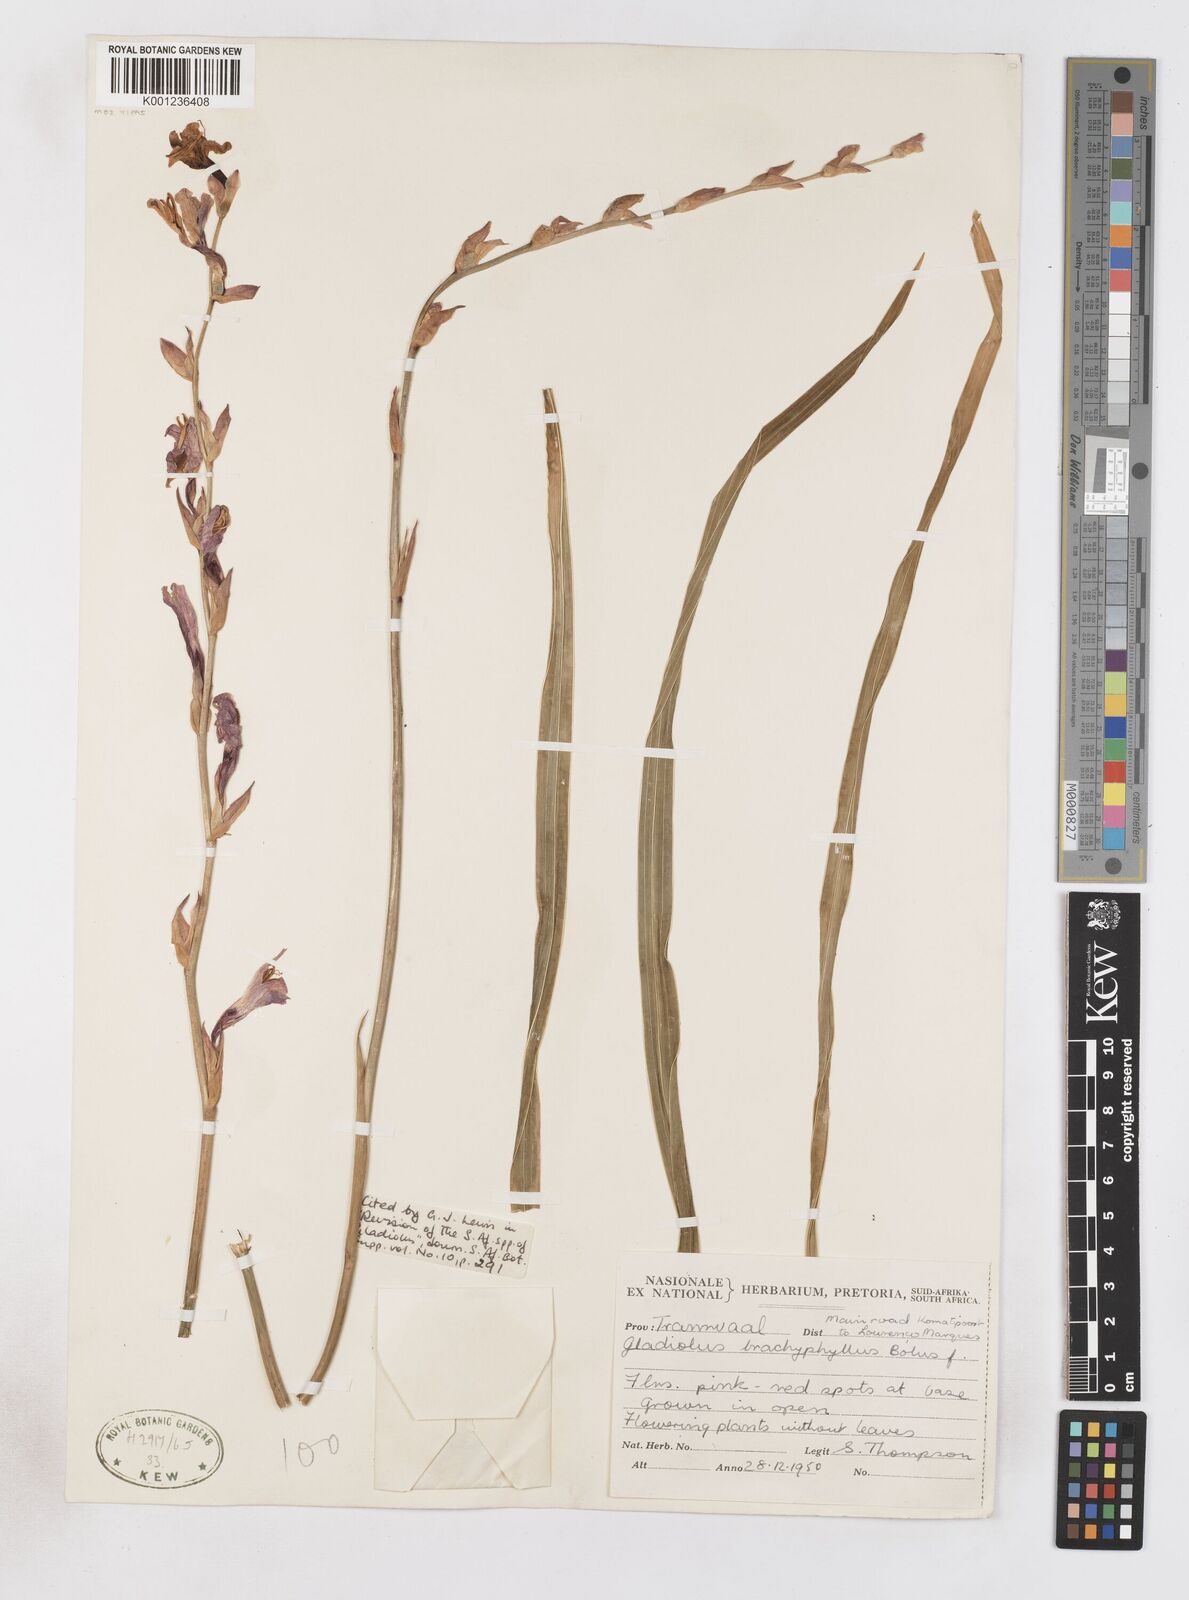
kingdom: Plantae
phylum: Tracheophyta
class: Liliopsida
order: Asparagales
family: Iridaceae
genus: Gladiolus
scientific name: Gladiolus brachyphyllus
